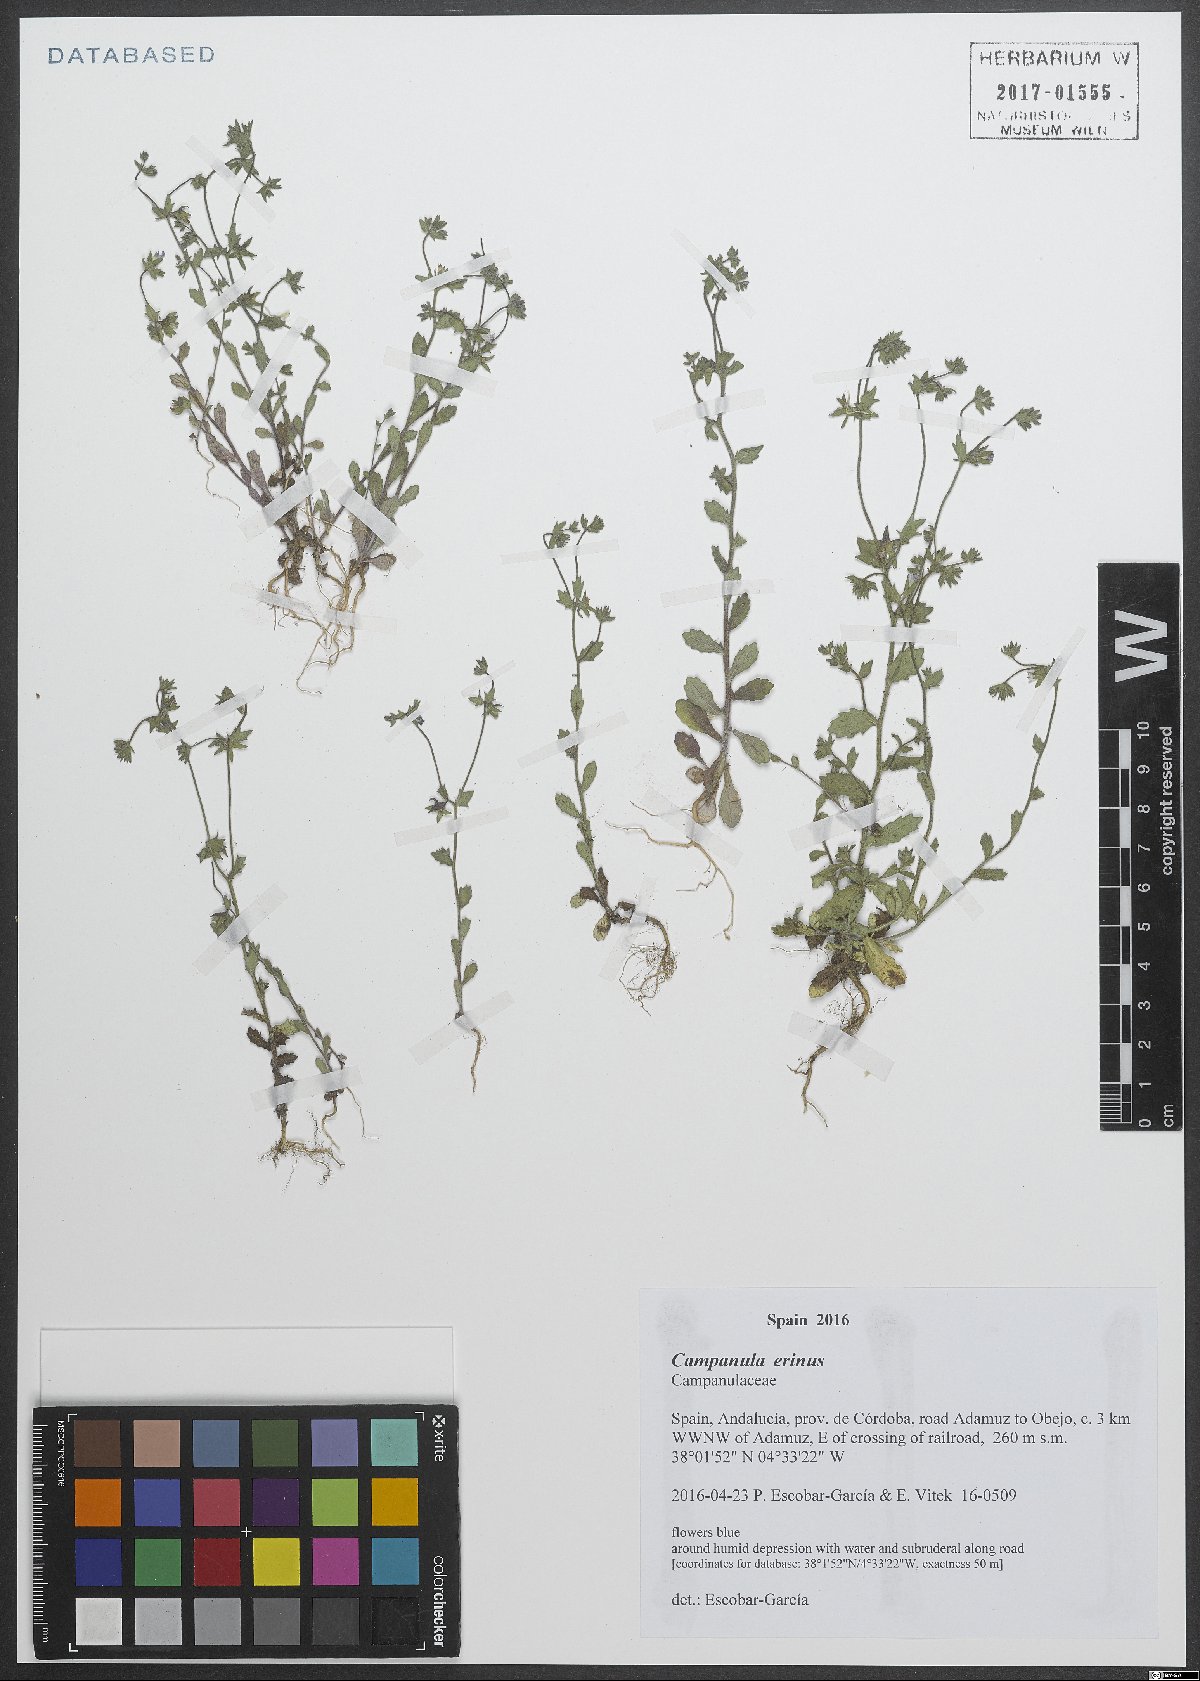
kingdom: Plantae
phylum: Tracheophyta
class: Magnoliopsida
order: Asterales
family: Campanulaceae
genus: Campanula
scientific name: Campanula erinus
